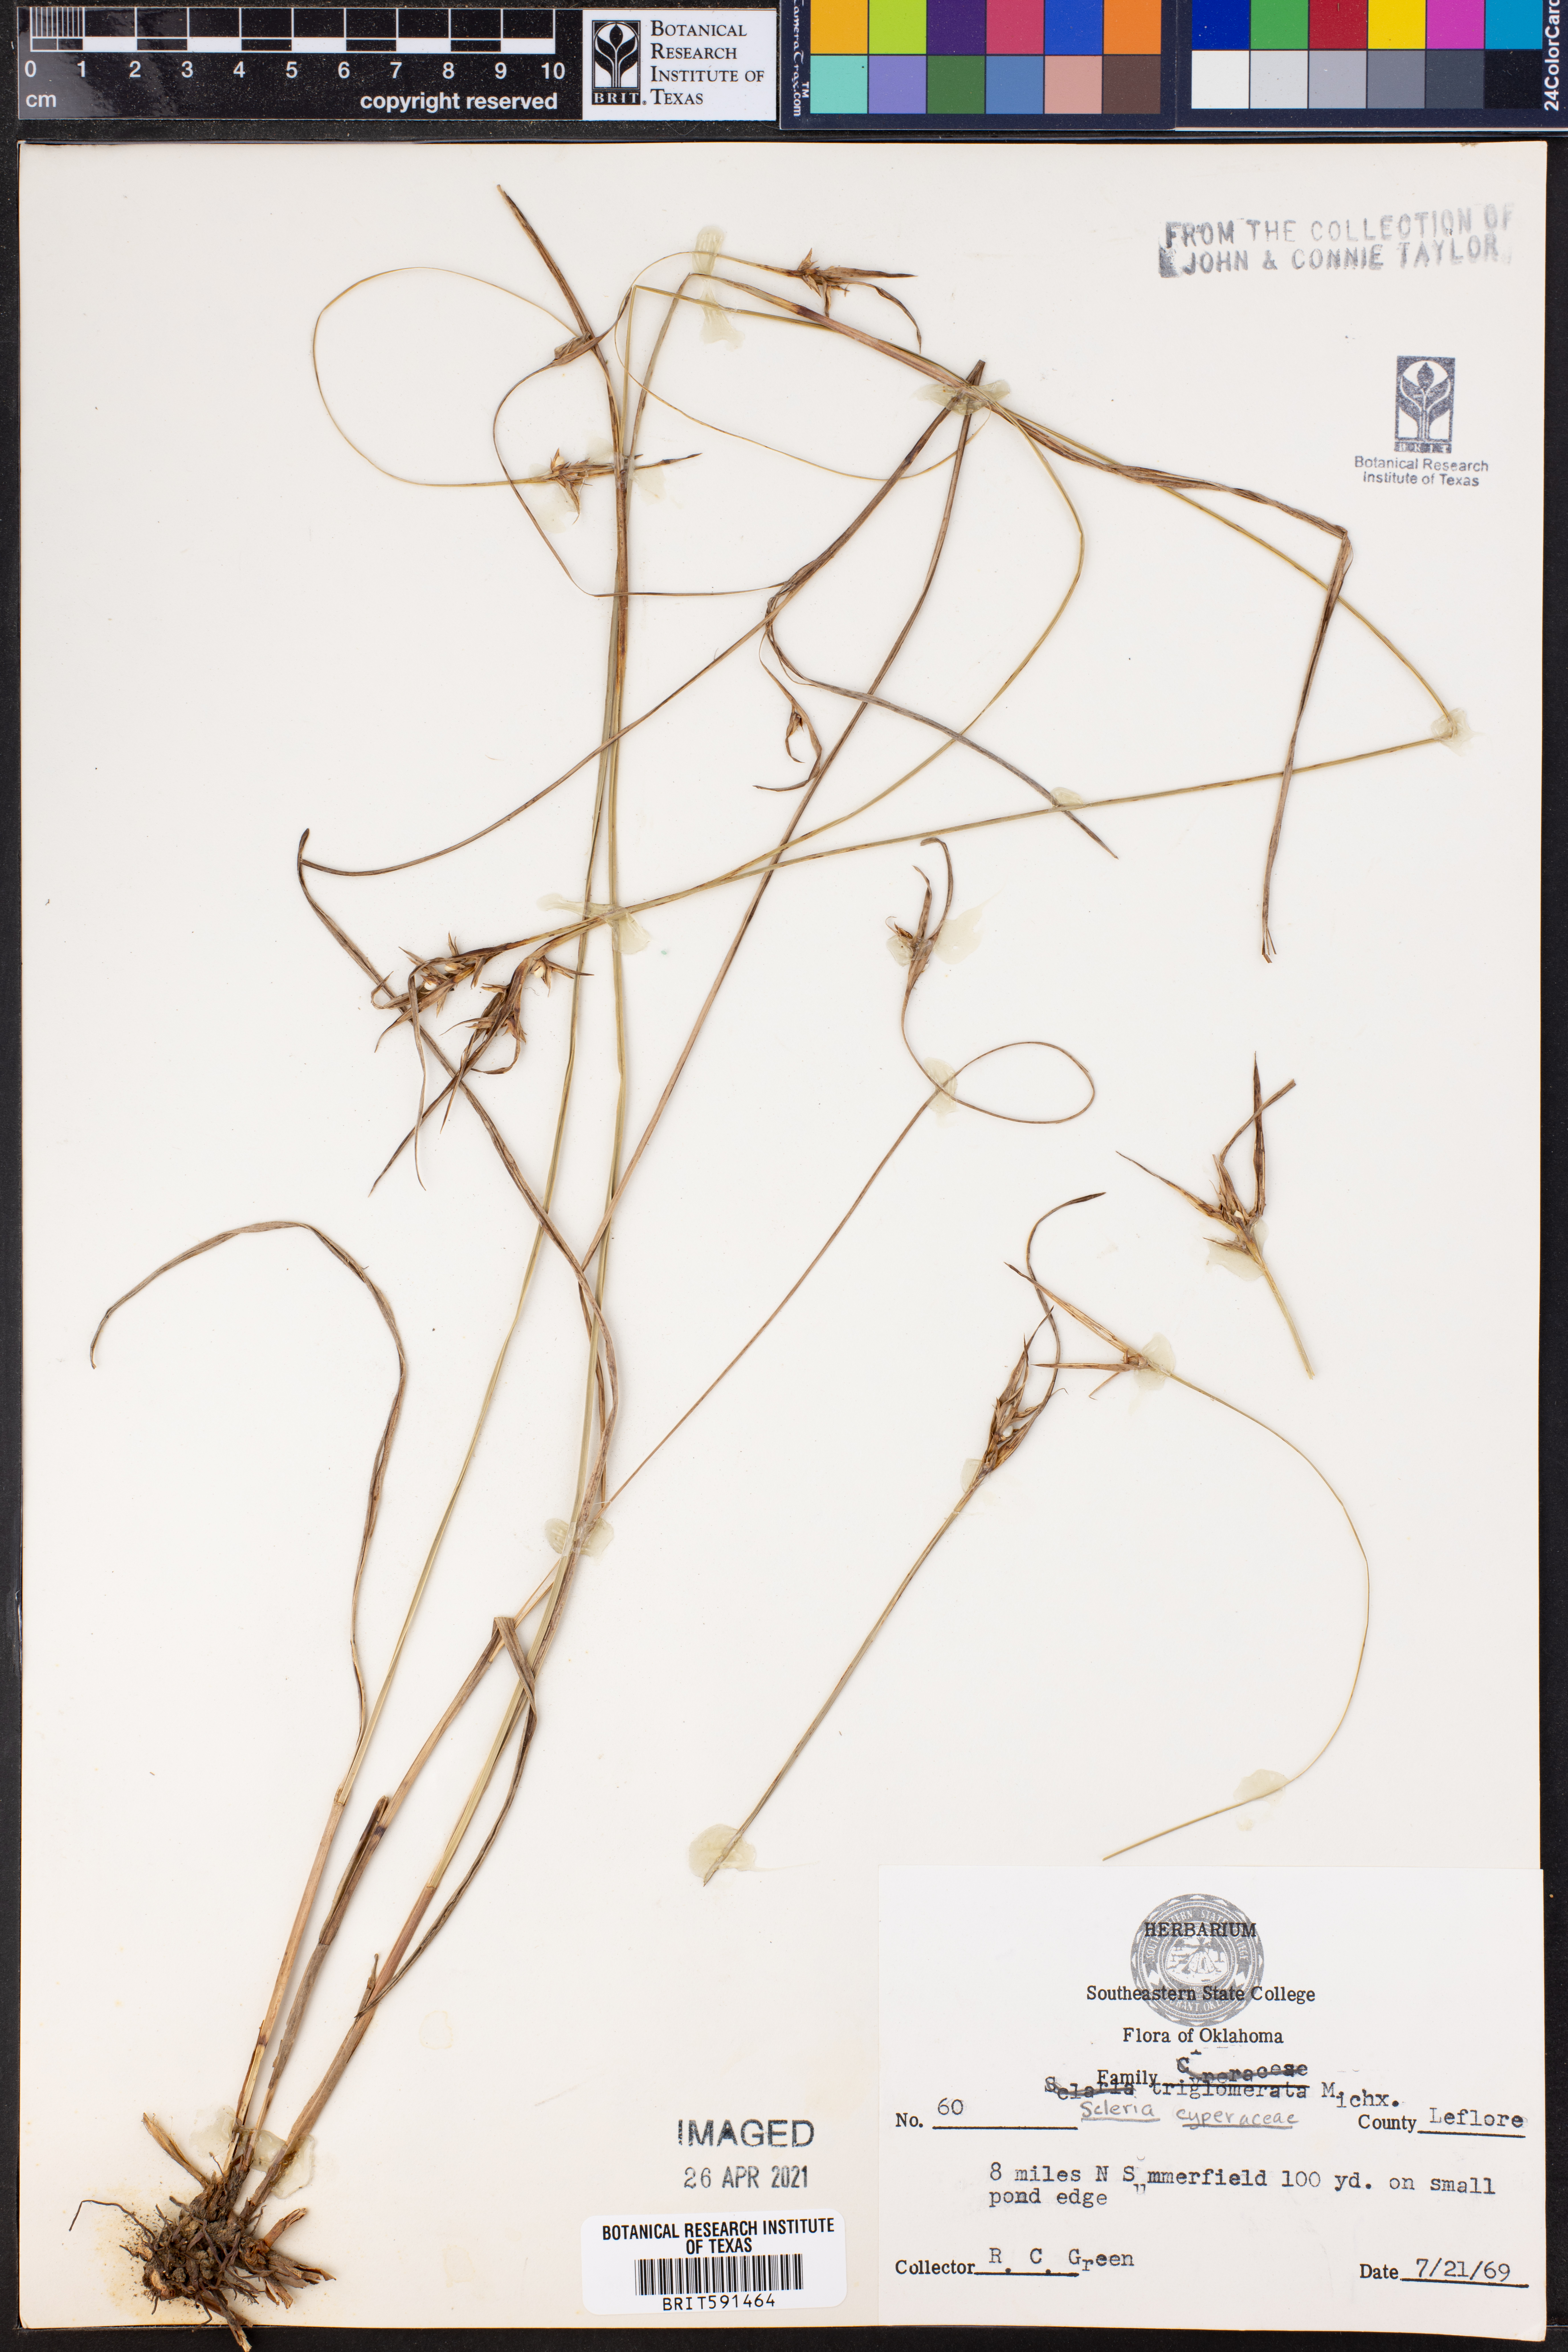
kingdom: Plantae
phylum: Tracheophyta
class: Liliopsida
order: Poales
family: Cyperaceae
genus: Scleria
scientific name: Scleria
